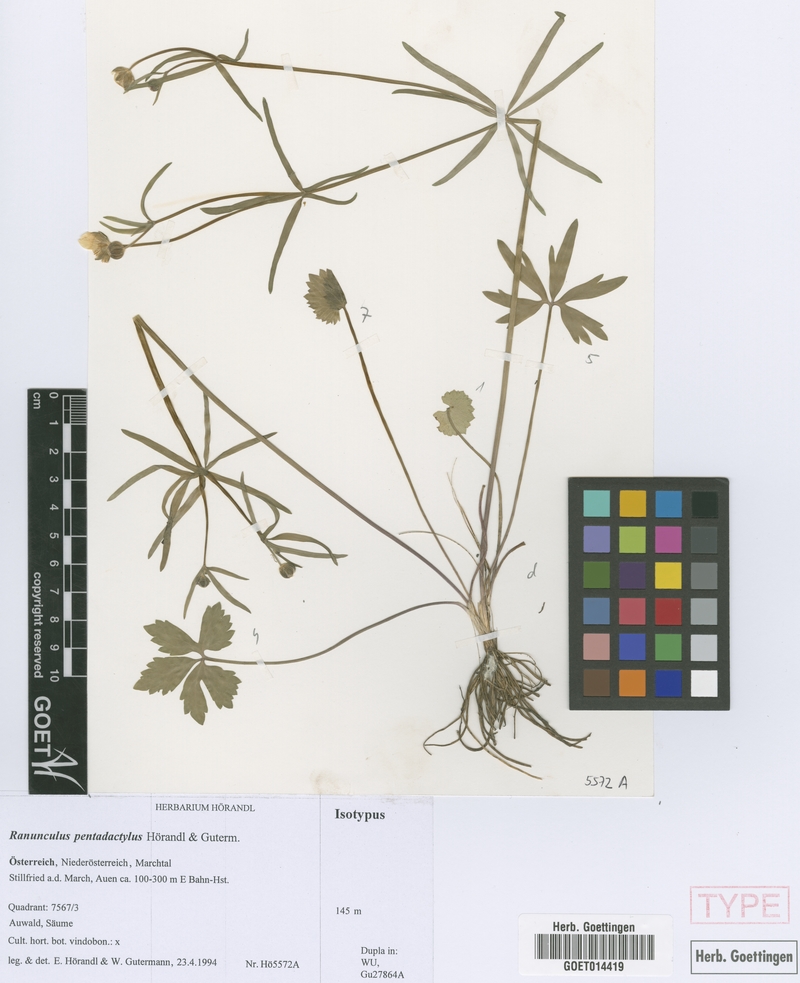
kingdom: Plantae
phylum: Tracheophyta
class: Magnoliopsida
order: Ranunculales
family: Ranunculaceae
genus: Ranunculus
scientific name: Ranunculus pentadactylus
